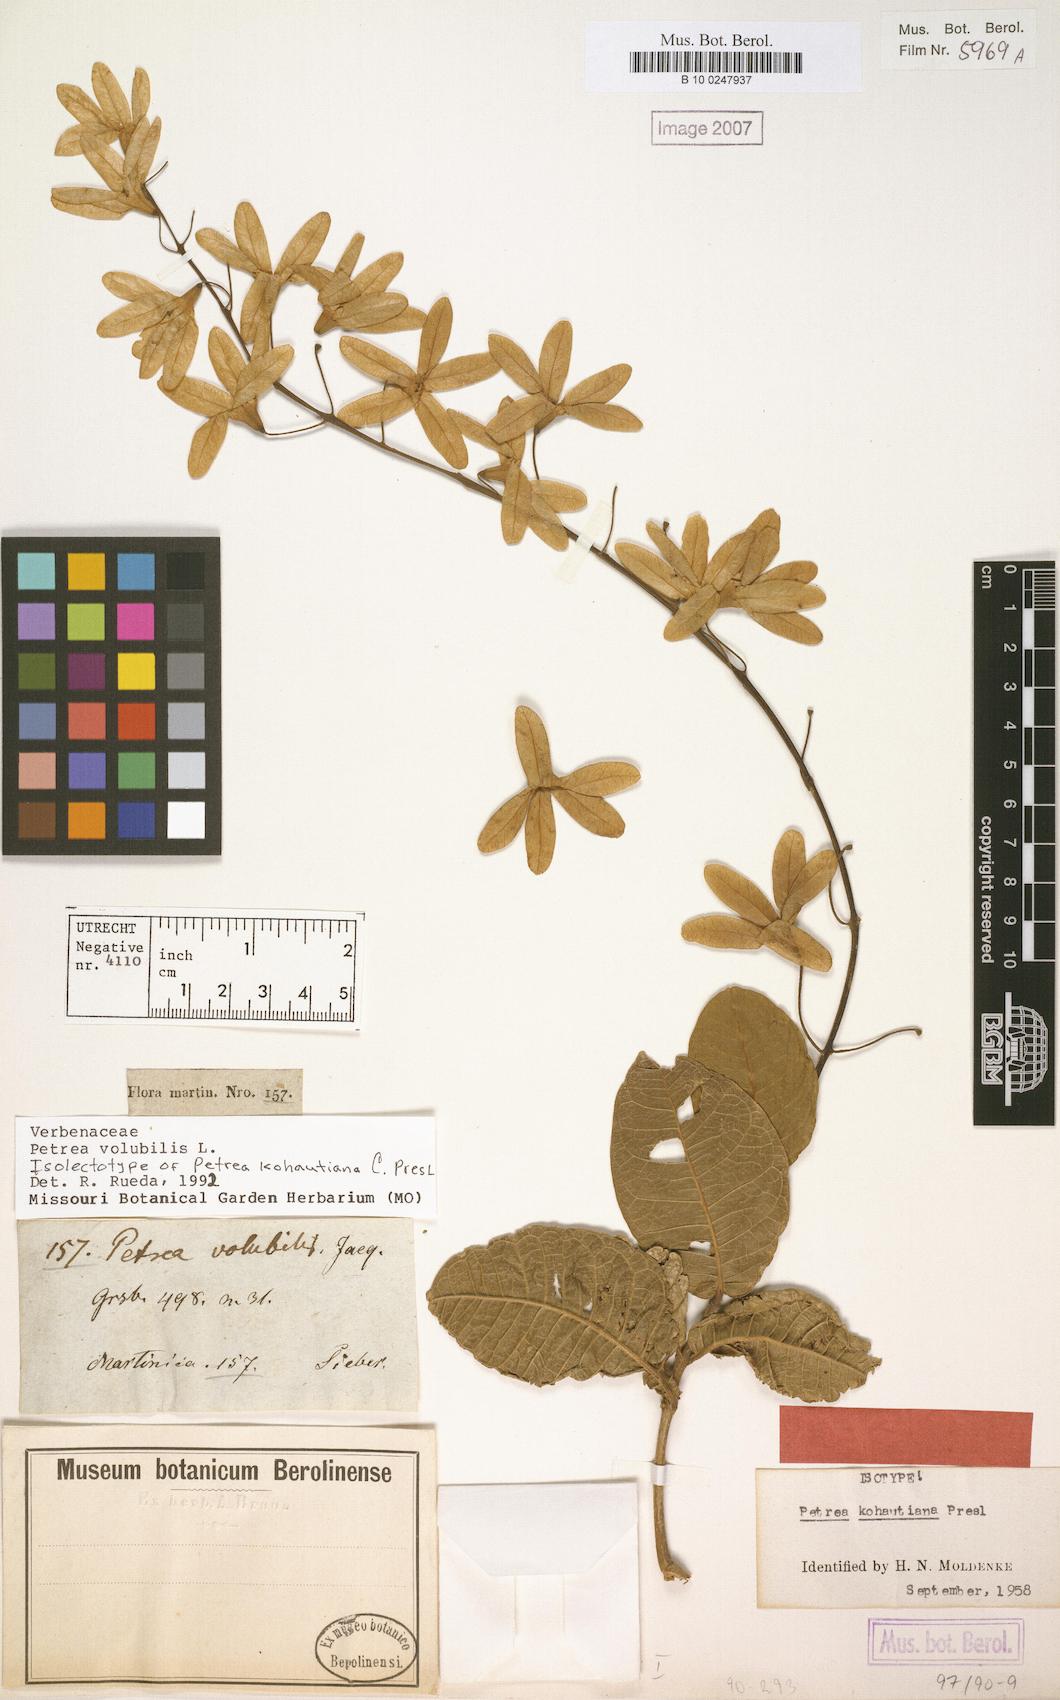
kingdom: Plantae
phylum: Tracheophyta
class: Magnoliopsida
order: Lamiales
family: Verbenaceae
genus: Petrea
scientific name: Petrea volubilis
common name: Queen's-wreath
